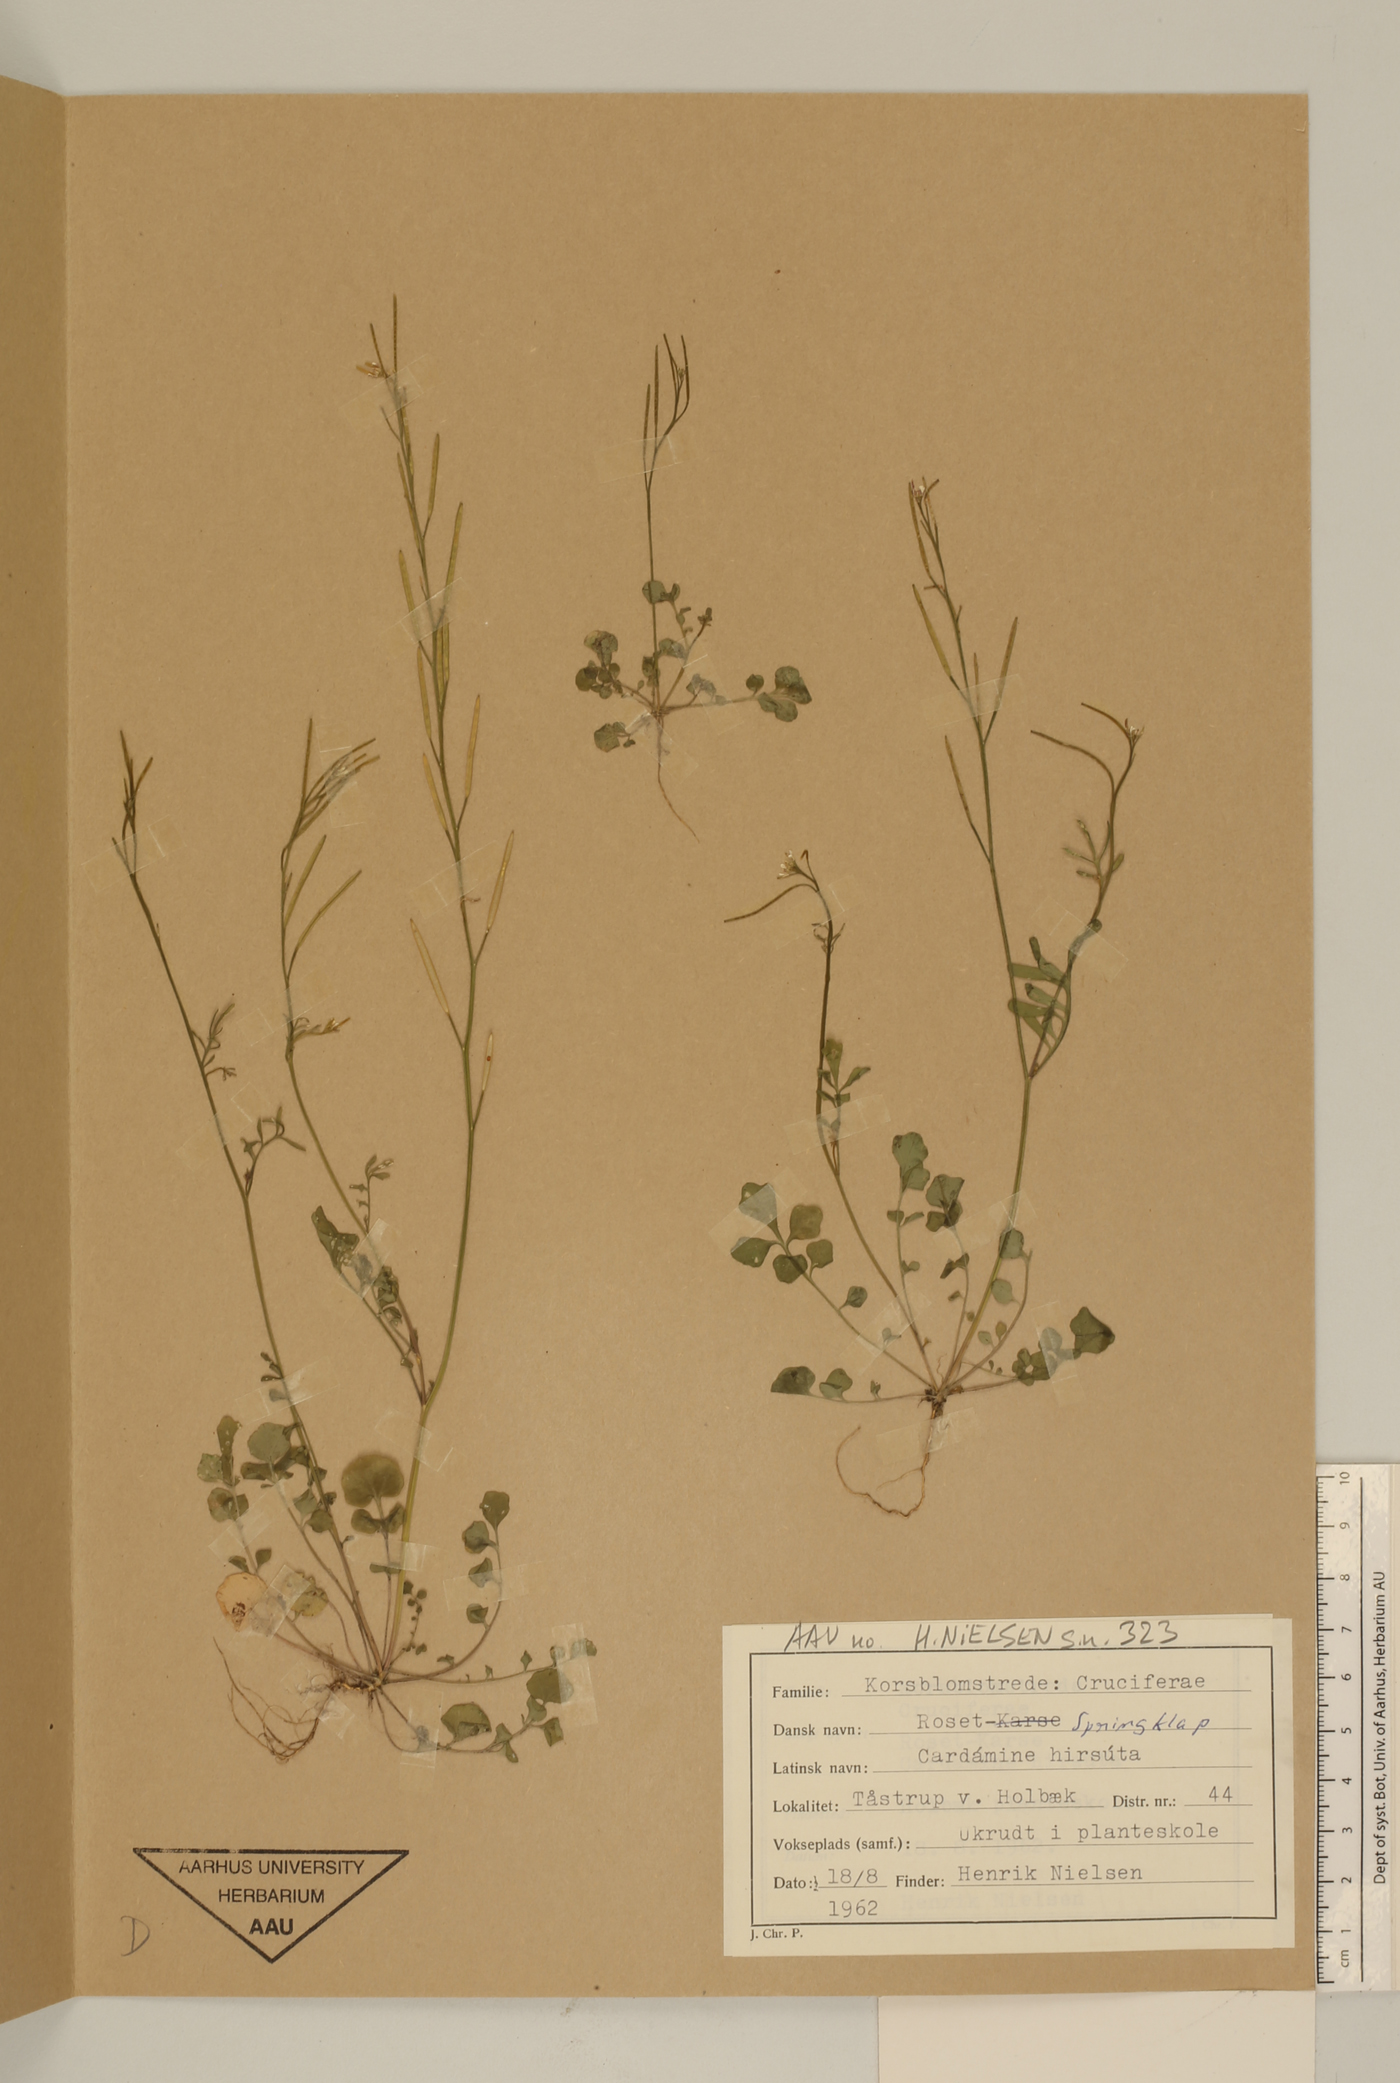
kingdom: Plantae
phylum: Tracheophyta
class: Magnoliopsida
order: Brassicales
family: Brassicaceae
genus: Cardamine
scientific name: Cardamine hirsuta
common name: Hairy bittercress
